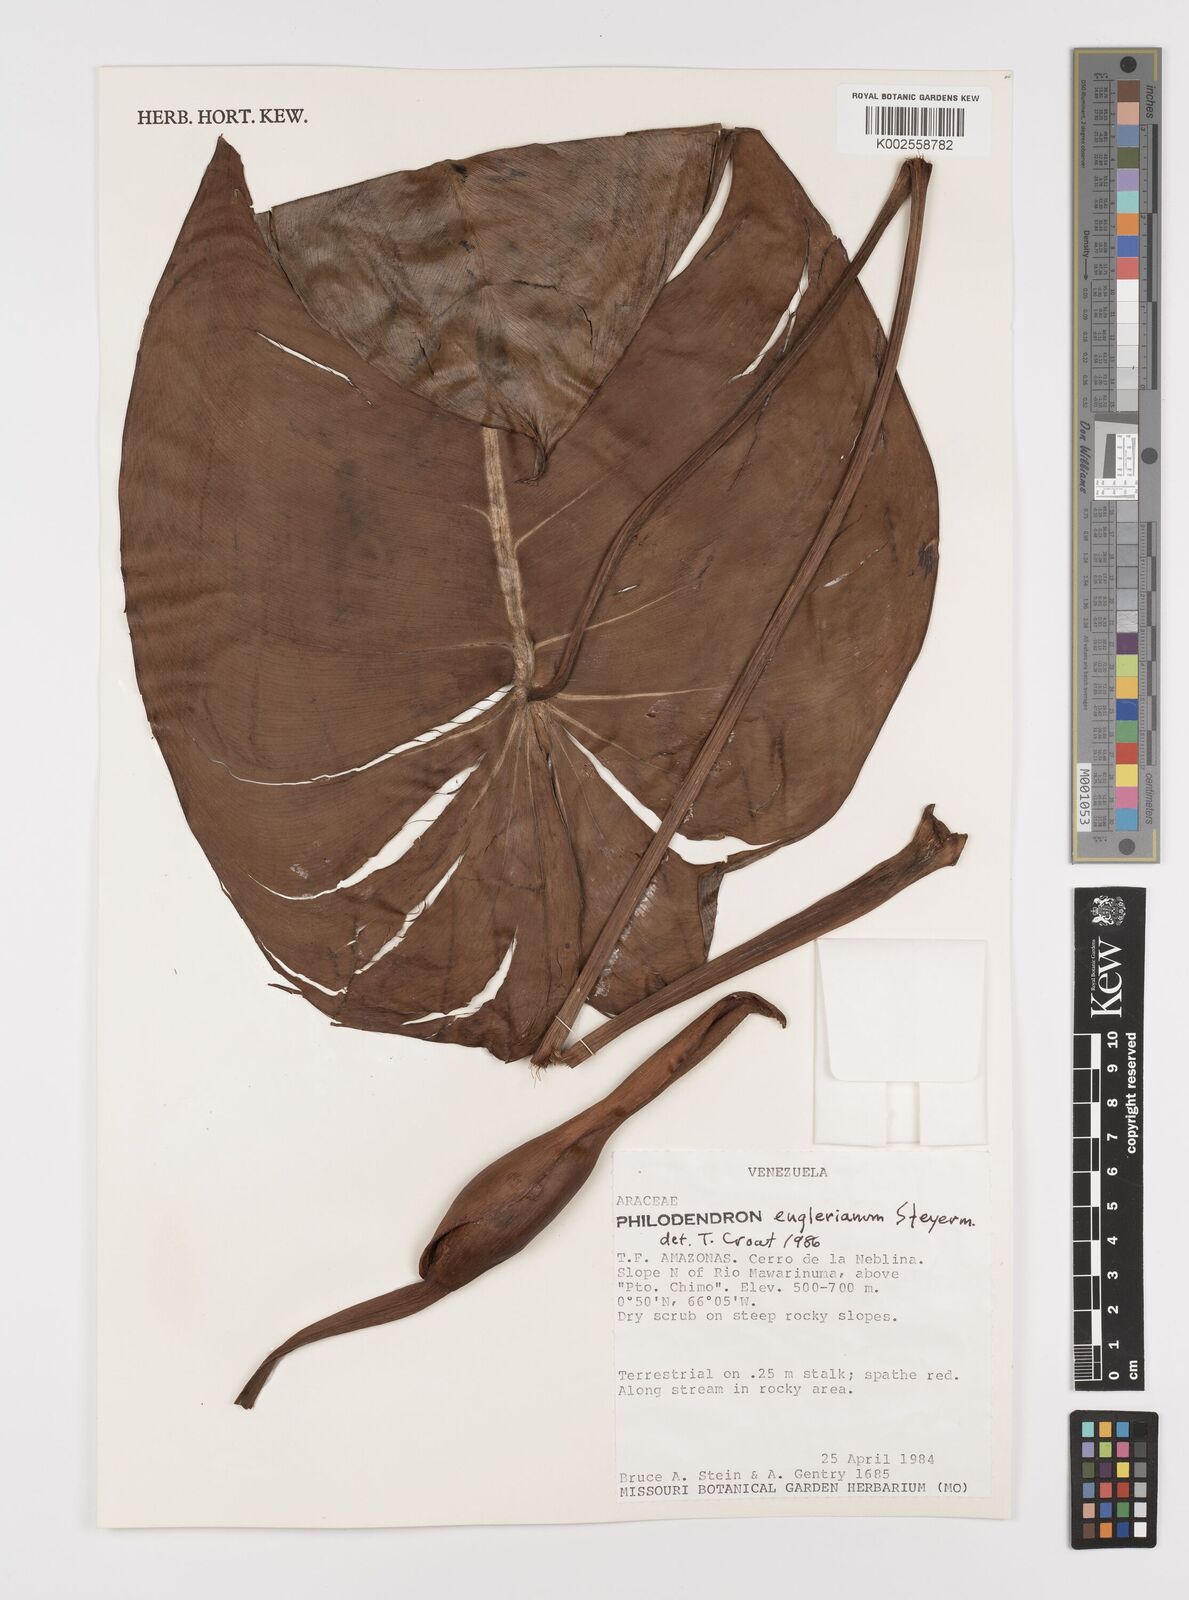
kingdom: Plantae
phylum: Tracheophyta
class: Liliopsida
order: Alismatales
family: Araceae
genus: Philodendron
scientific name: Philodendron englerianum
